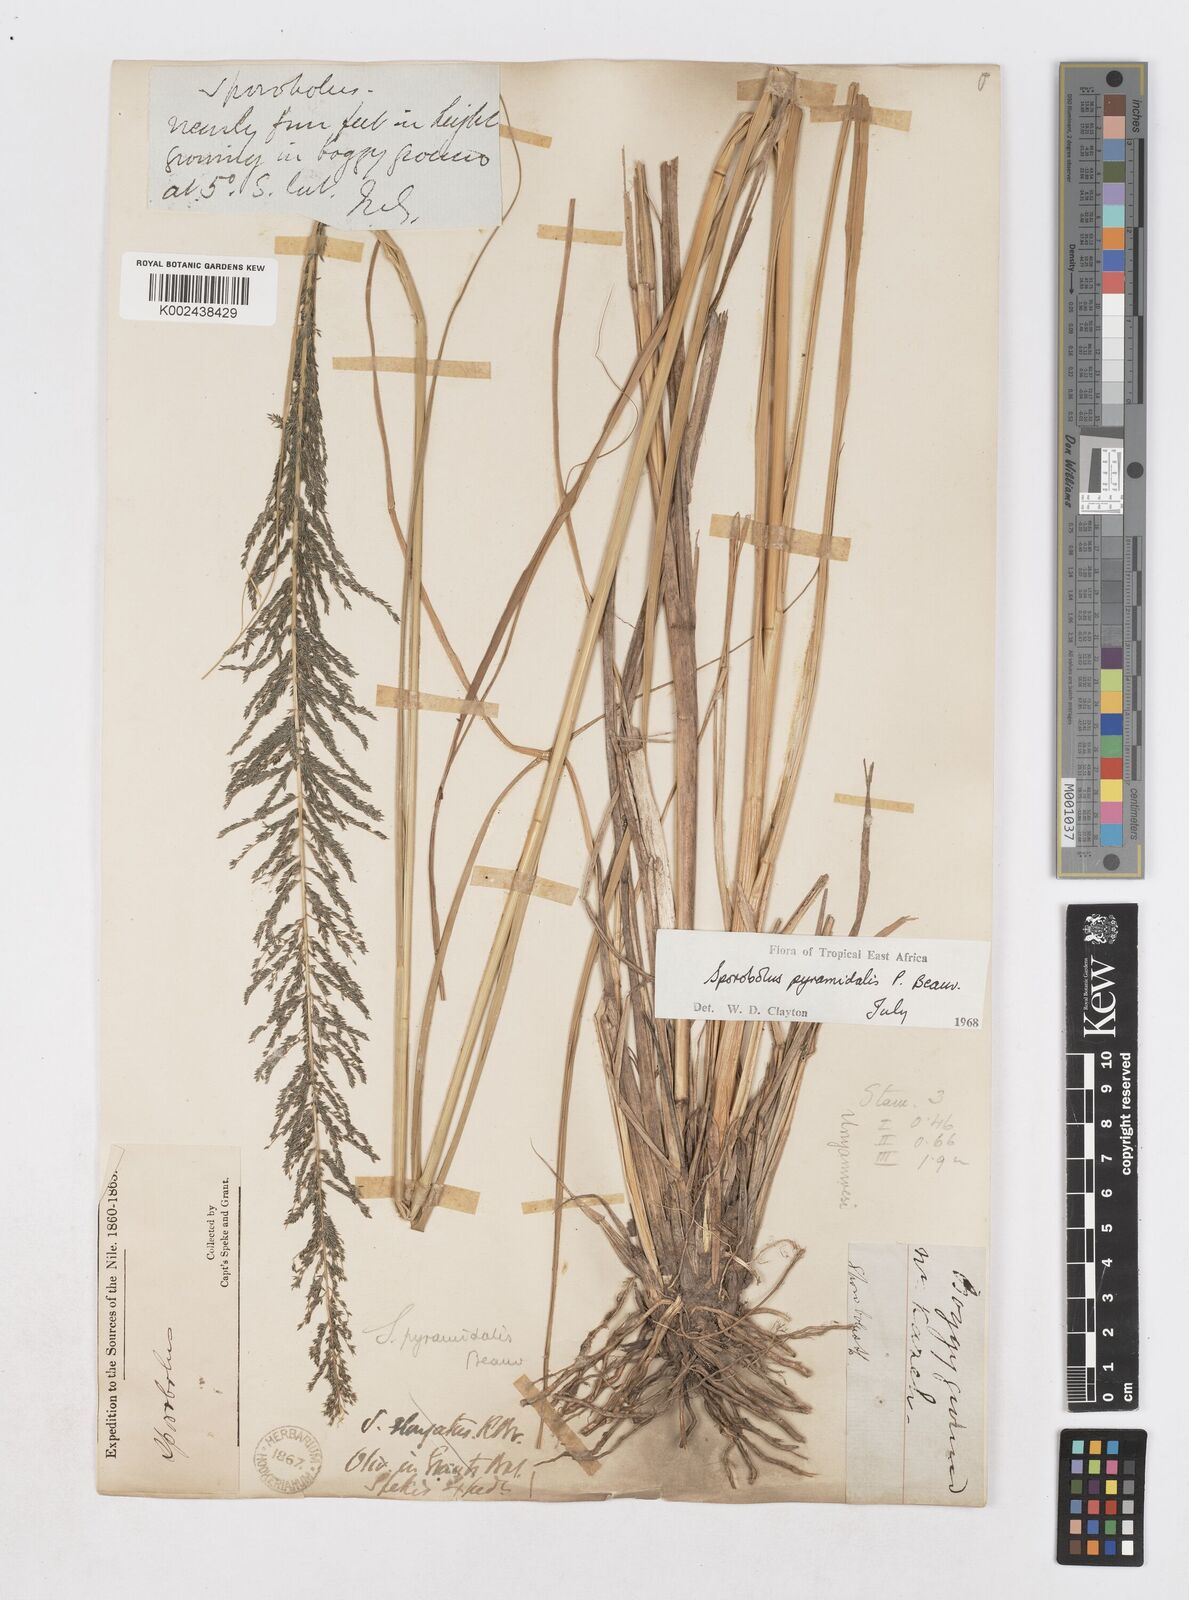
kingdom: Plantae
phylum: Tracheophyta
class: Liliopsida
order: Poales
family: Poaceae
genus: Sporobolus
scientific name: Sporobolus pyramidalis
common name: West indian dropseed
